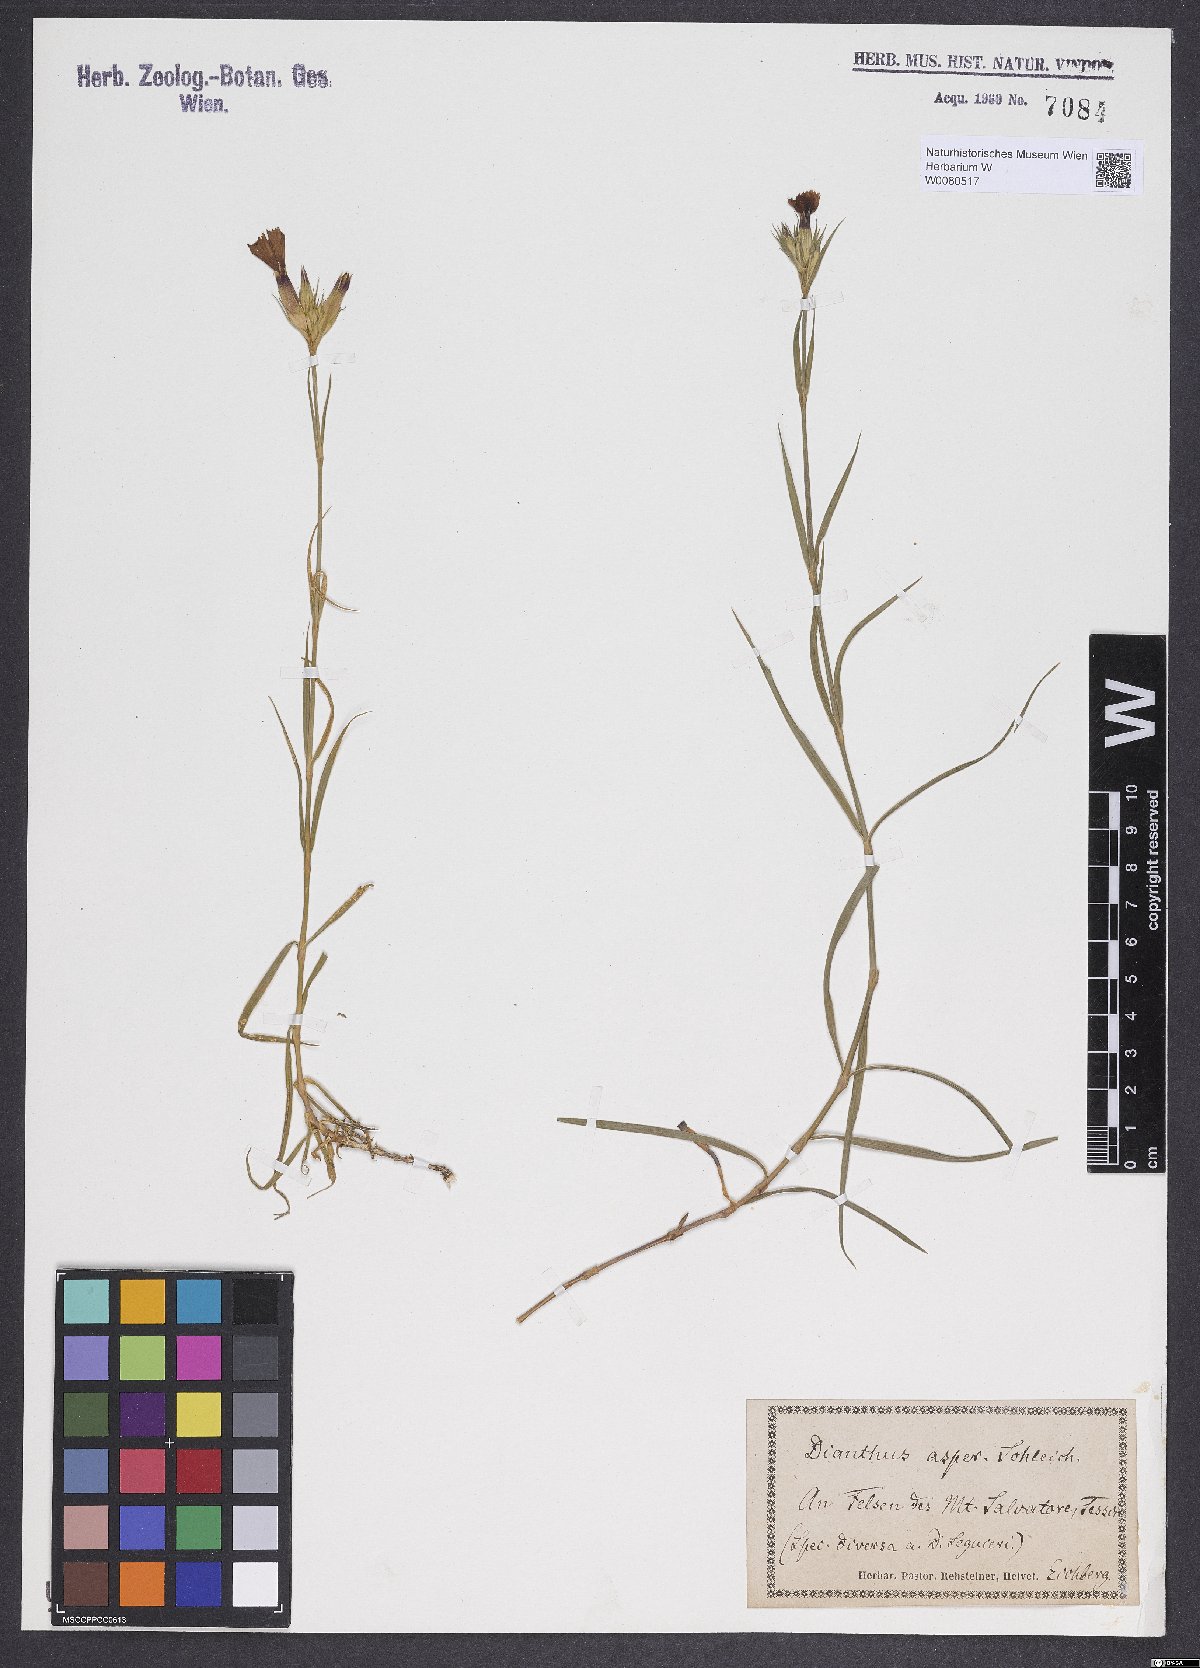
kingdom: Plantae
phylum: Tracheophyta
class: Magnoliopsida
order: Caryophyllales
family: Caryophyllaceae
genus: Dianthus
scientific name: Dianthus seguieri
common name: Ragged pink
